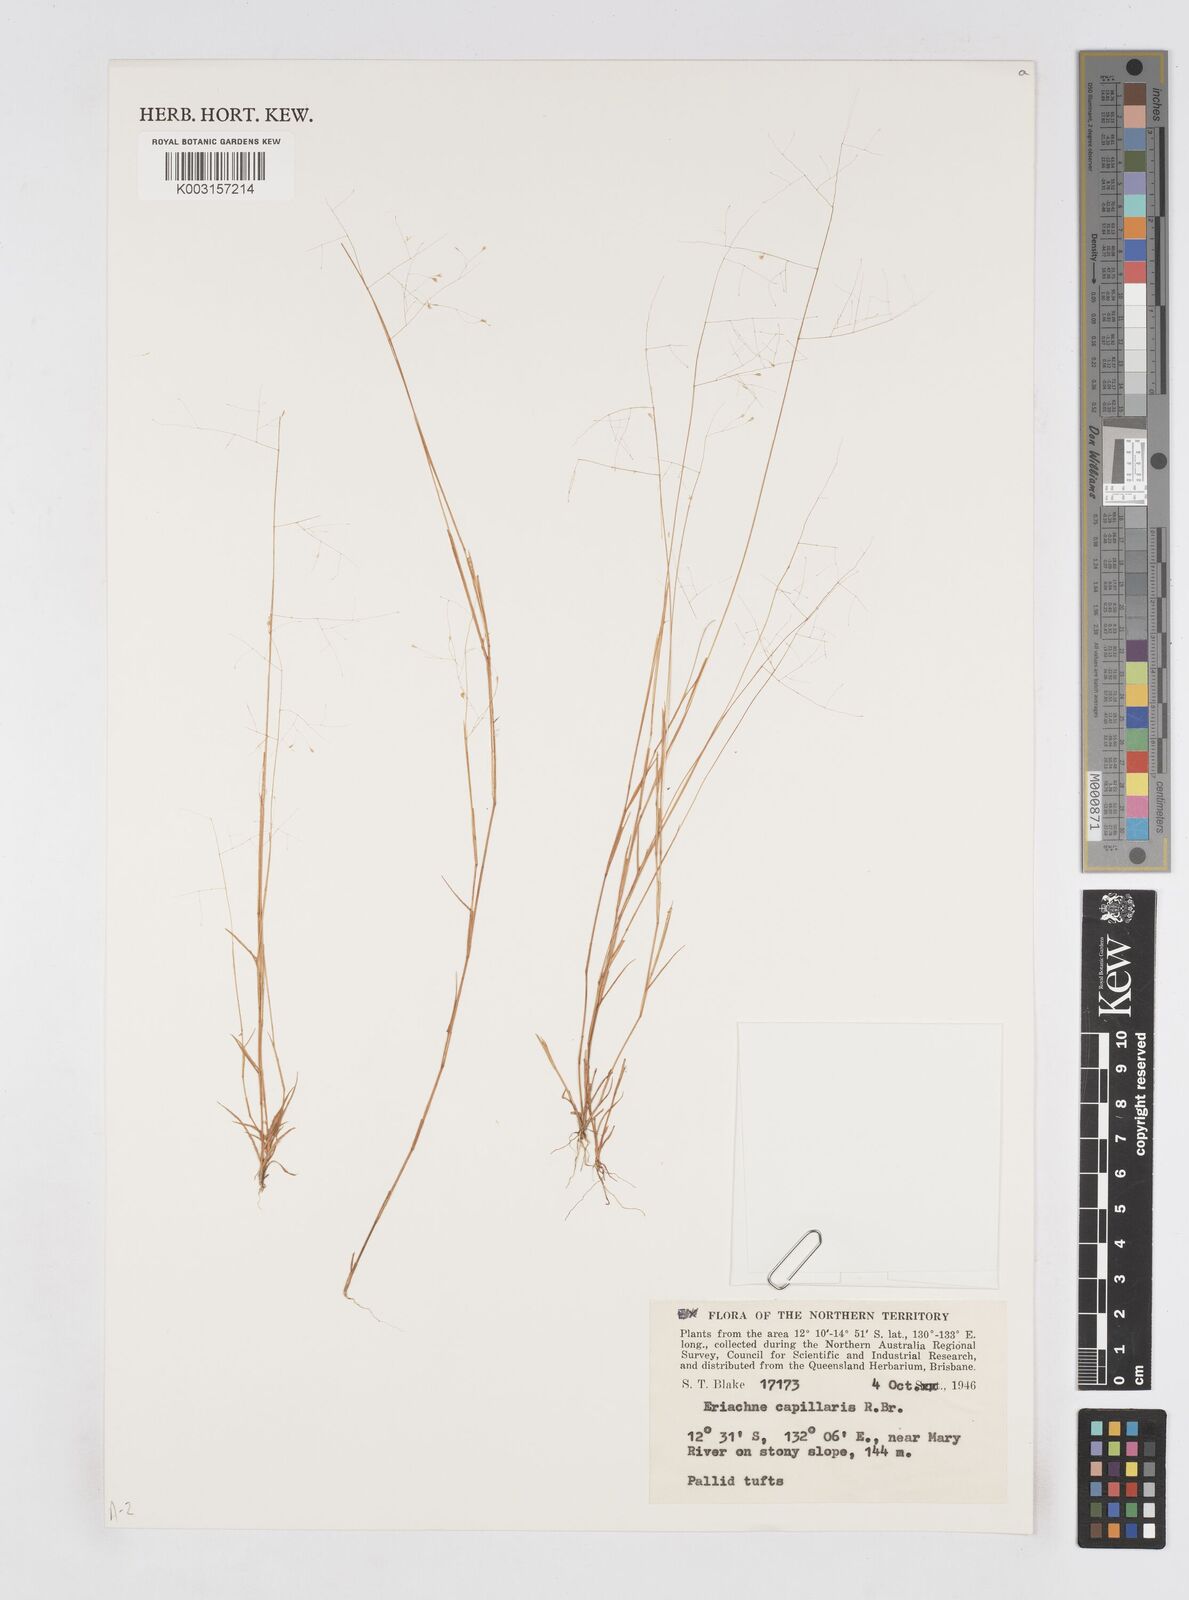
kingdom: Plantae
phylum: Tracheophyta
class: Liliopsida
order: Poales
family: Poaceae
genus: Eriachne
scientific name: Eriachne capillaris
